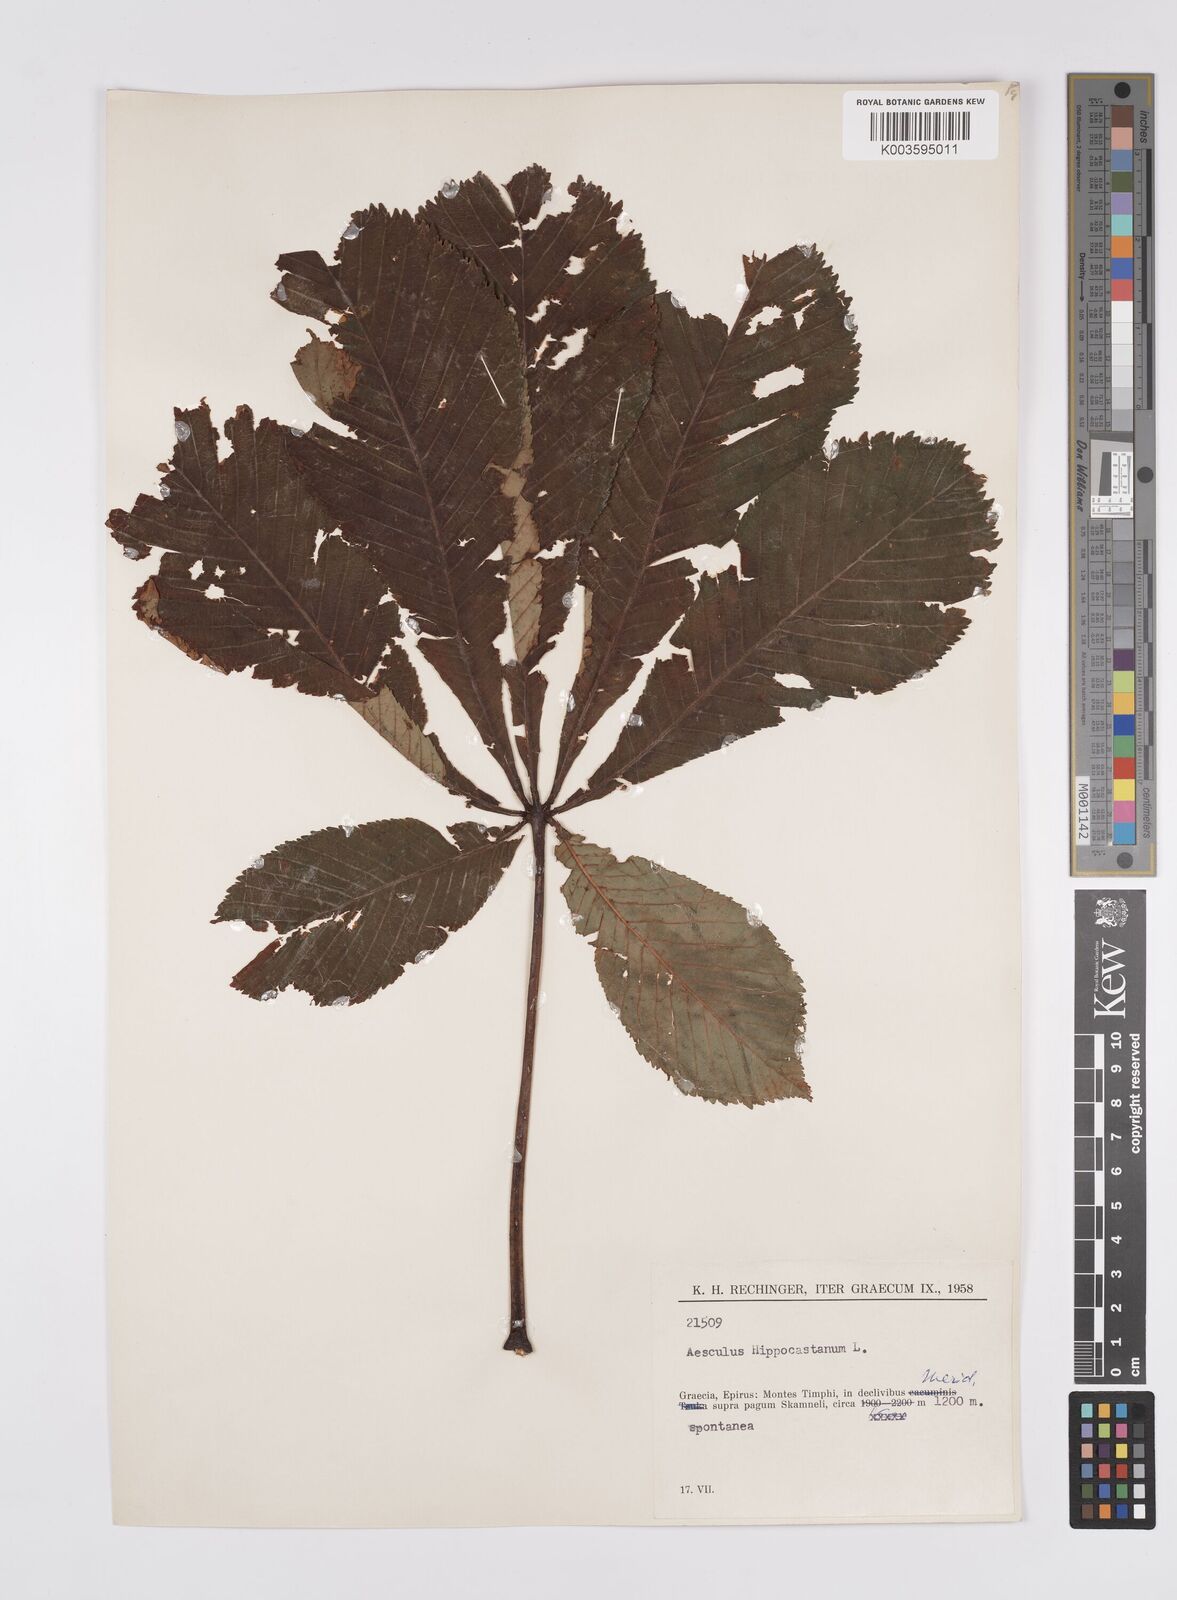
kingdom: Plantae
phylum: Tracheophyta
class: Magnoliopsida
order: Sapindales
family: Sapindaceae
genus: Aesculus
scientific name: Aesculus hippocastanum
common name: Horse-chestnut
